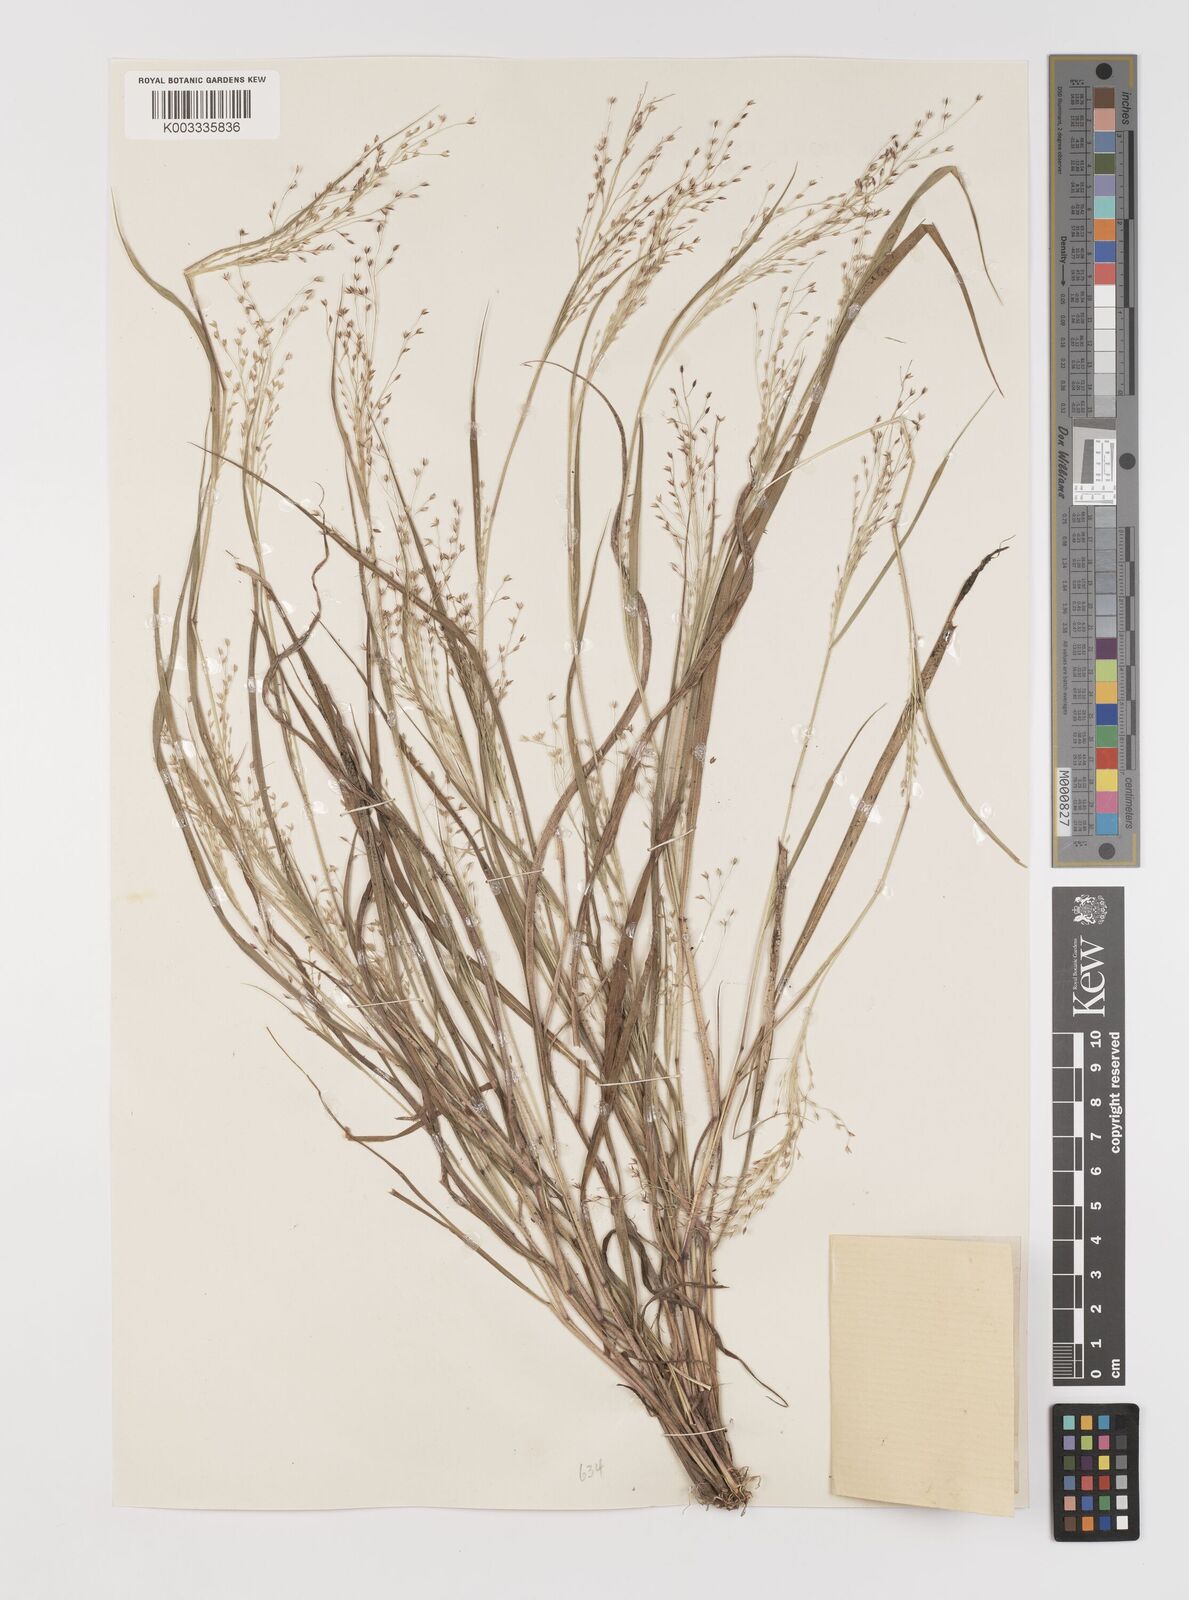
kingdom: Plantae
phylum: Tracheophyta
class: Liliopsida
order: Poales
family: Poaceae
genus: Panicum
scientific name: Panicum griffonii
